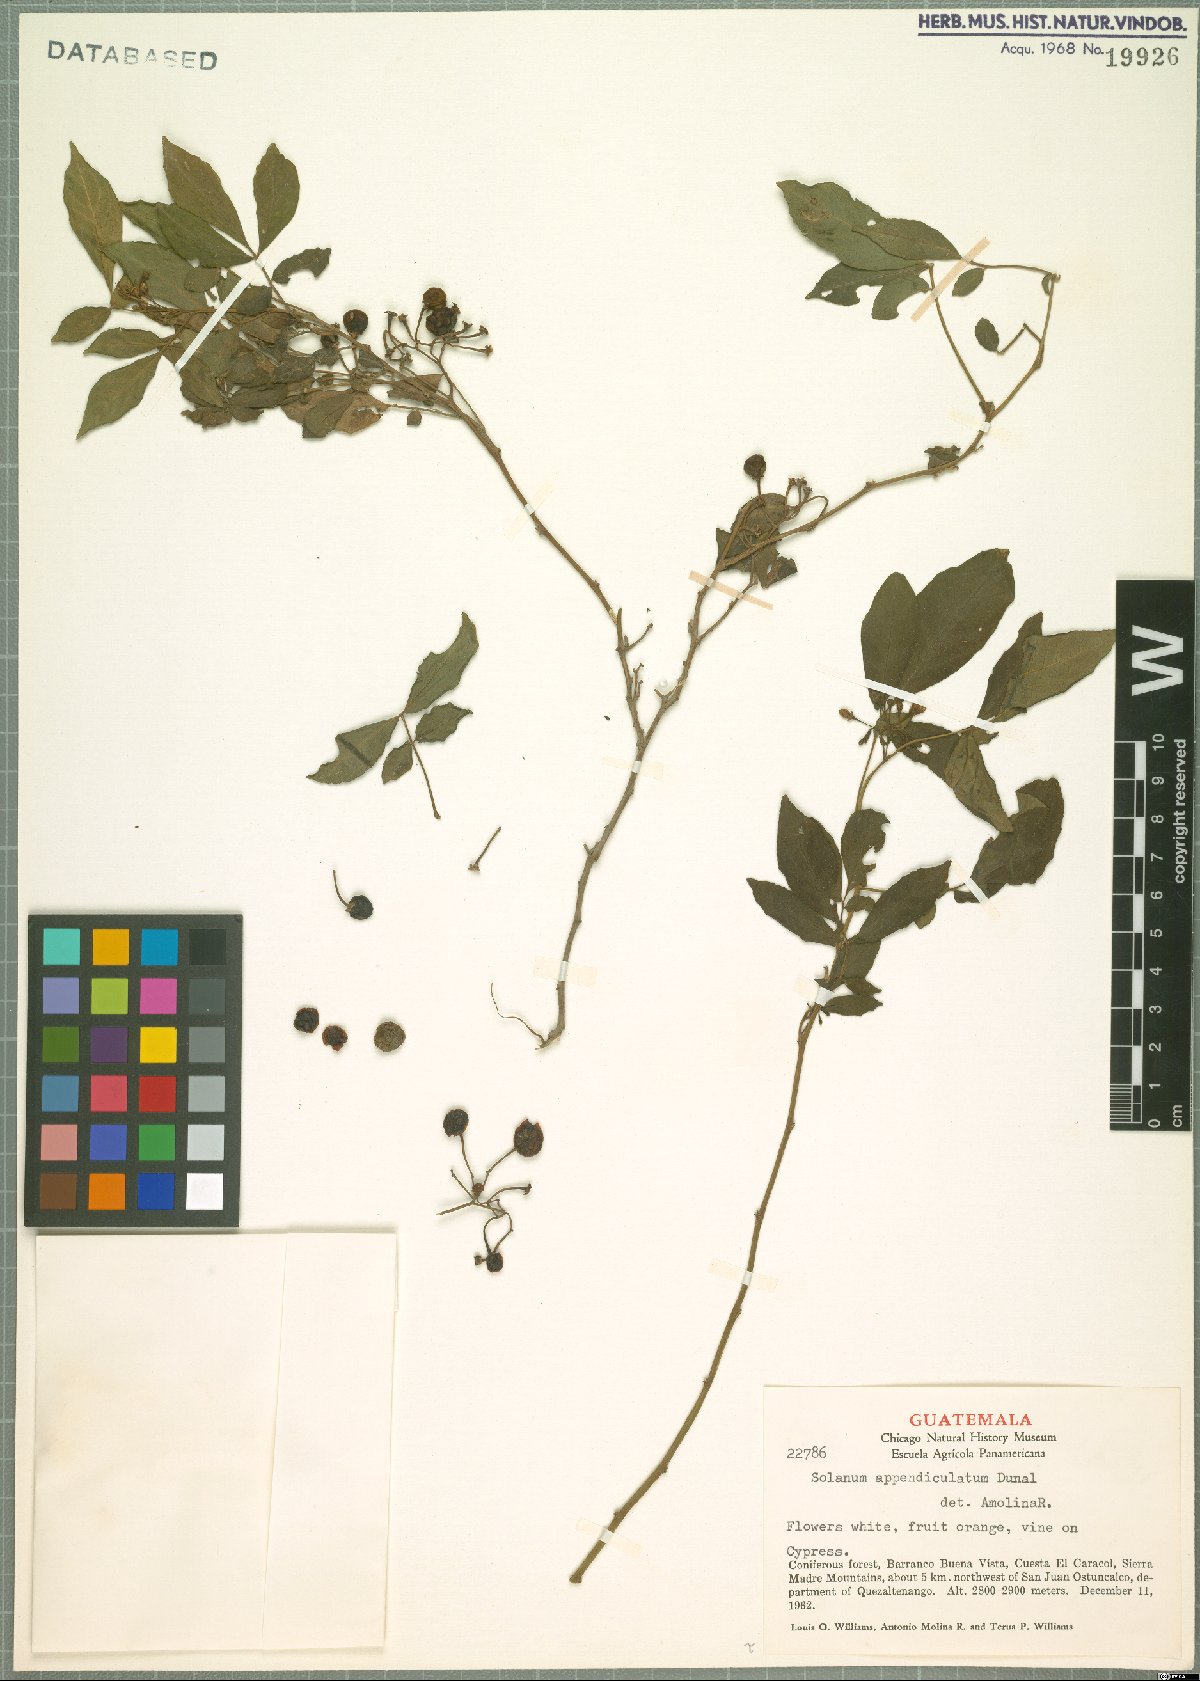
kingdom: Plantae
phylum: Tracheophyta
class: Magnoliopsida
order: Solanales
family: Solanaceae
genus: Solanum
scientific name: Solanum appendiculatum
